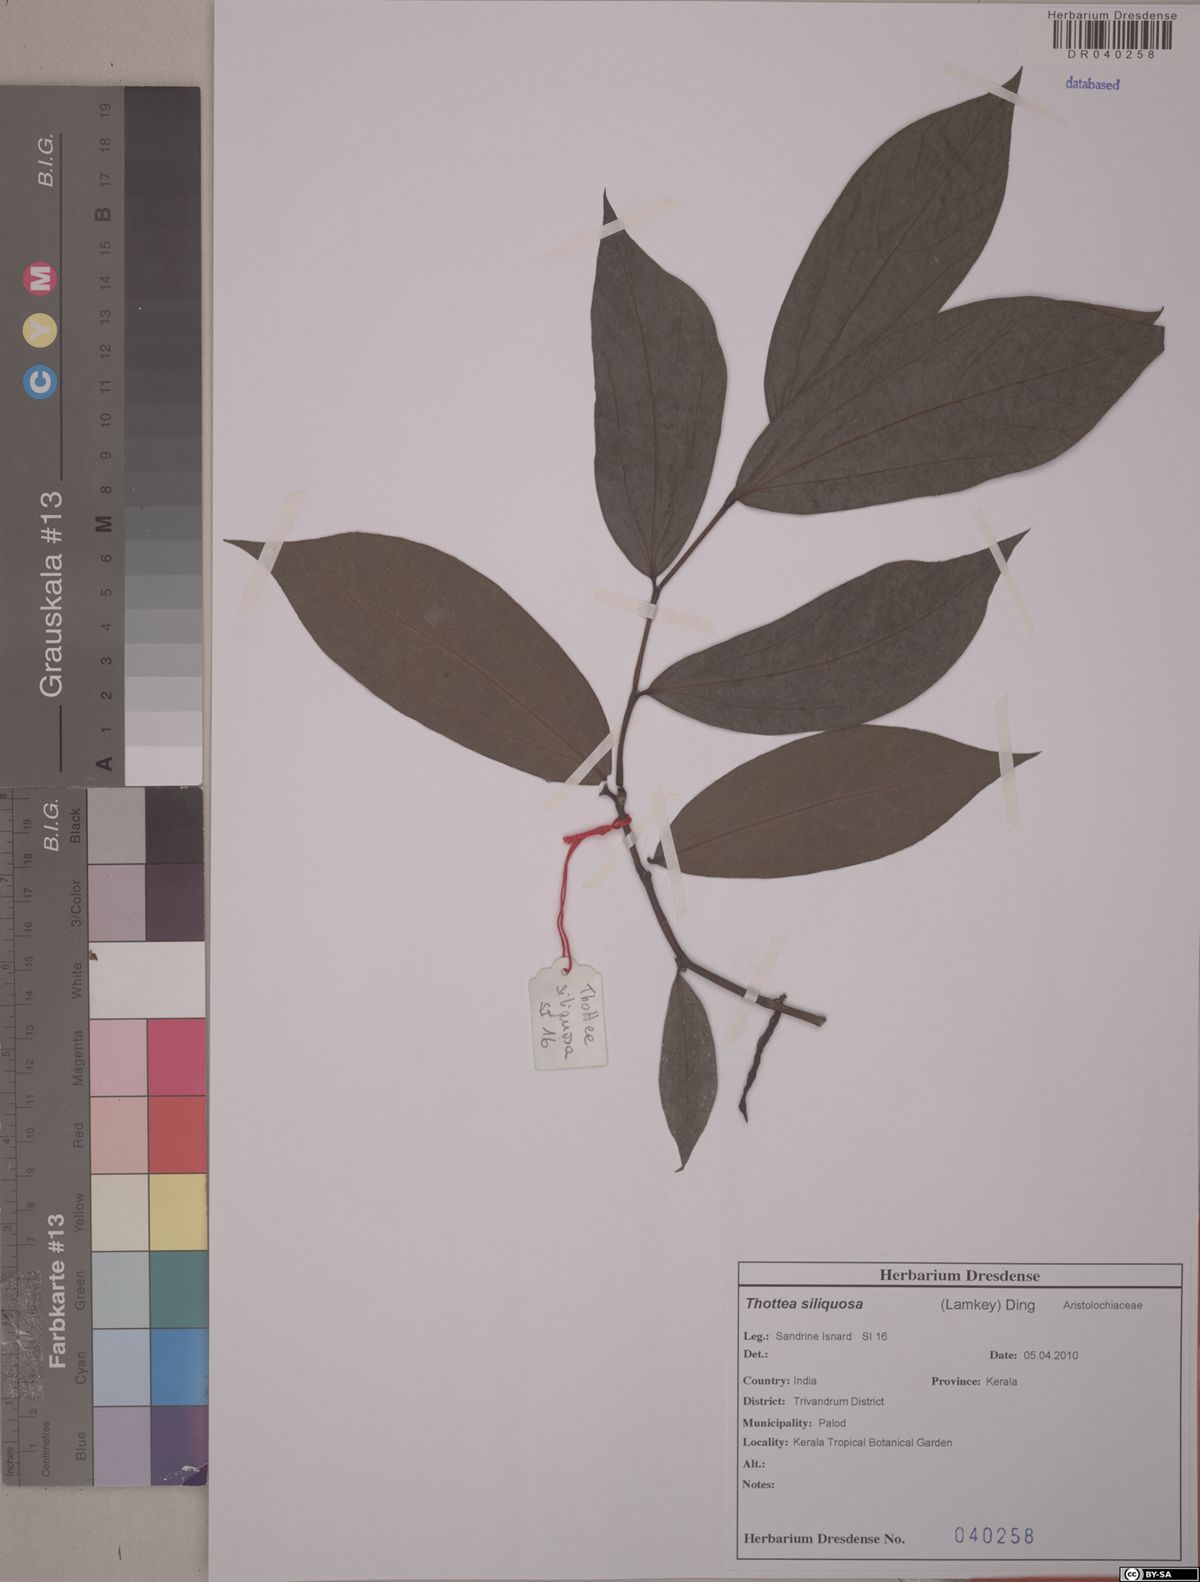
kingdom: Plantae
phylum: Tracheophyta
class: Magnoliopsida
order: Piperales
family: Aristolochiaceae
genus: Thottea
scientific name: Thottea siliquosa
